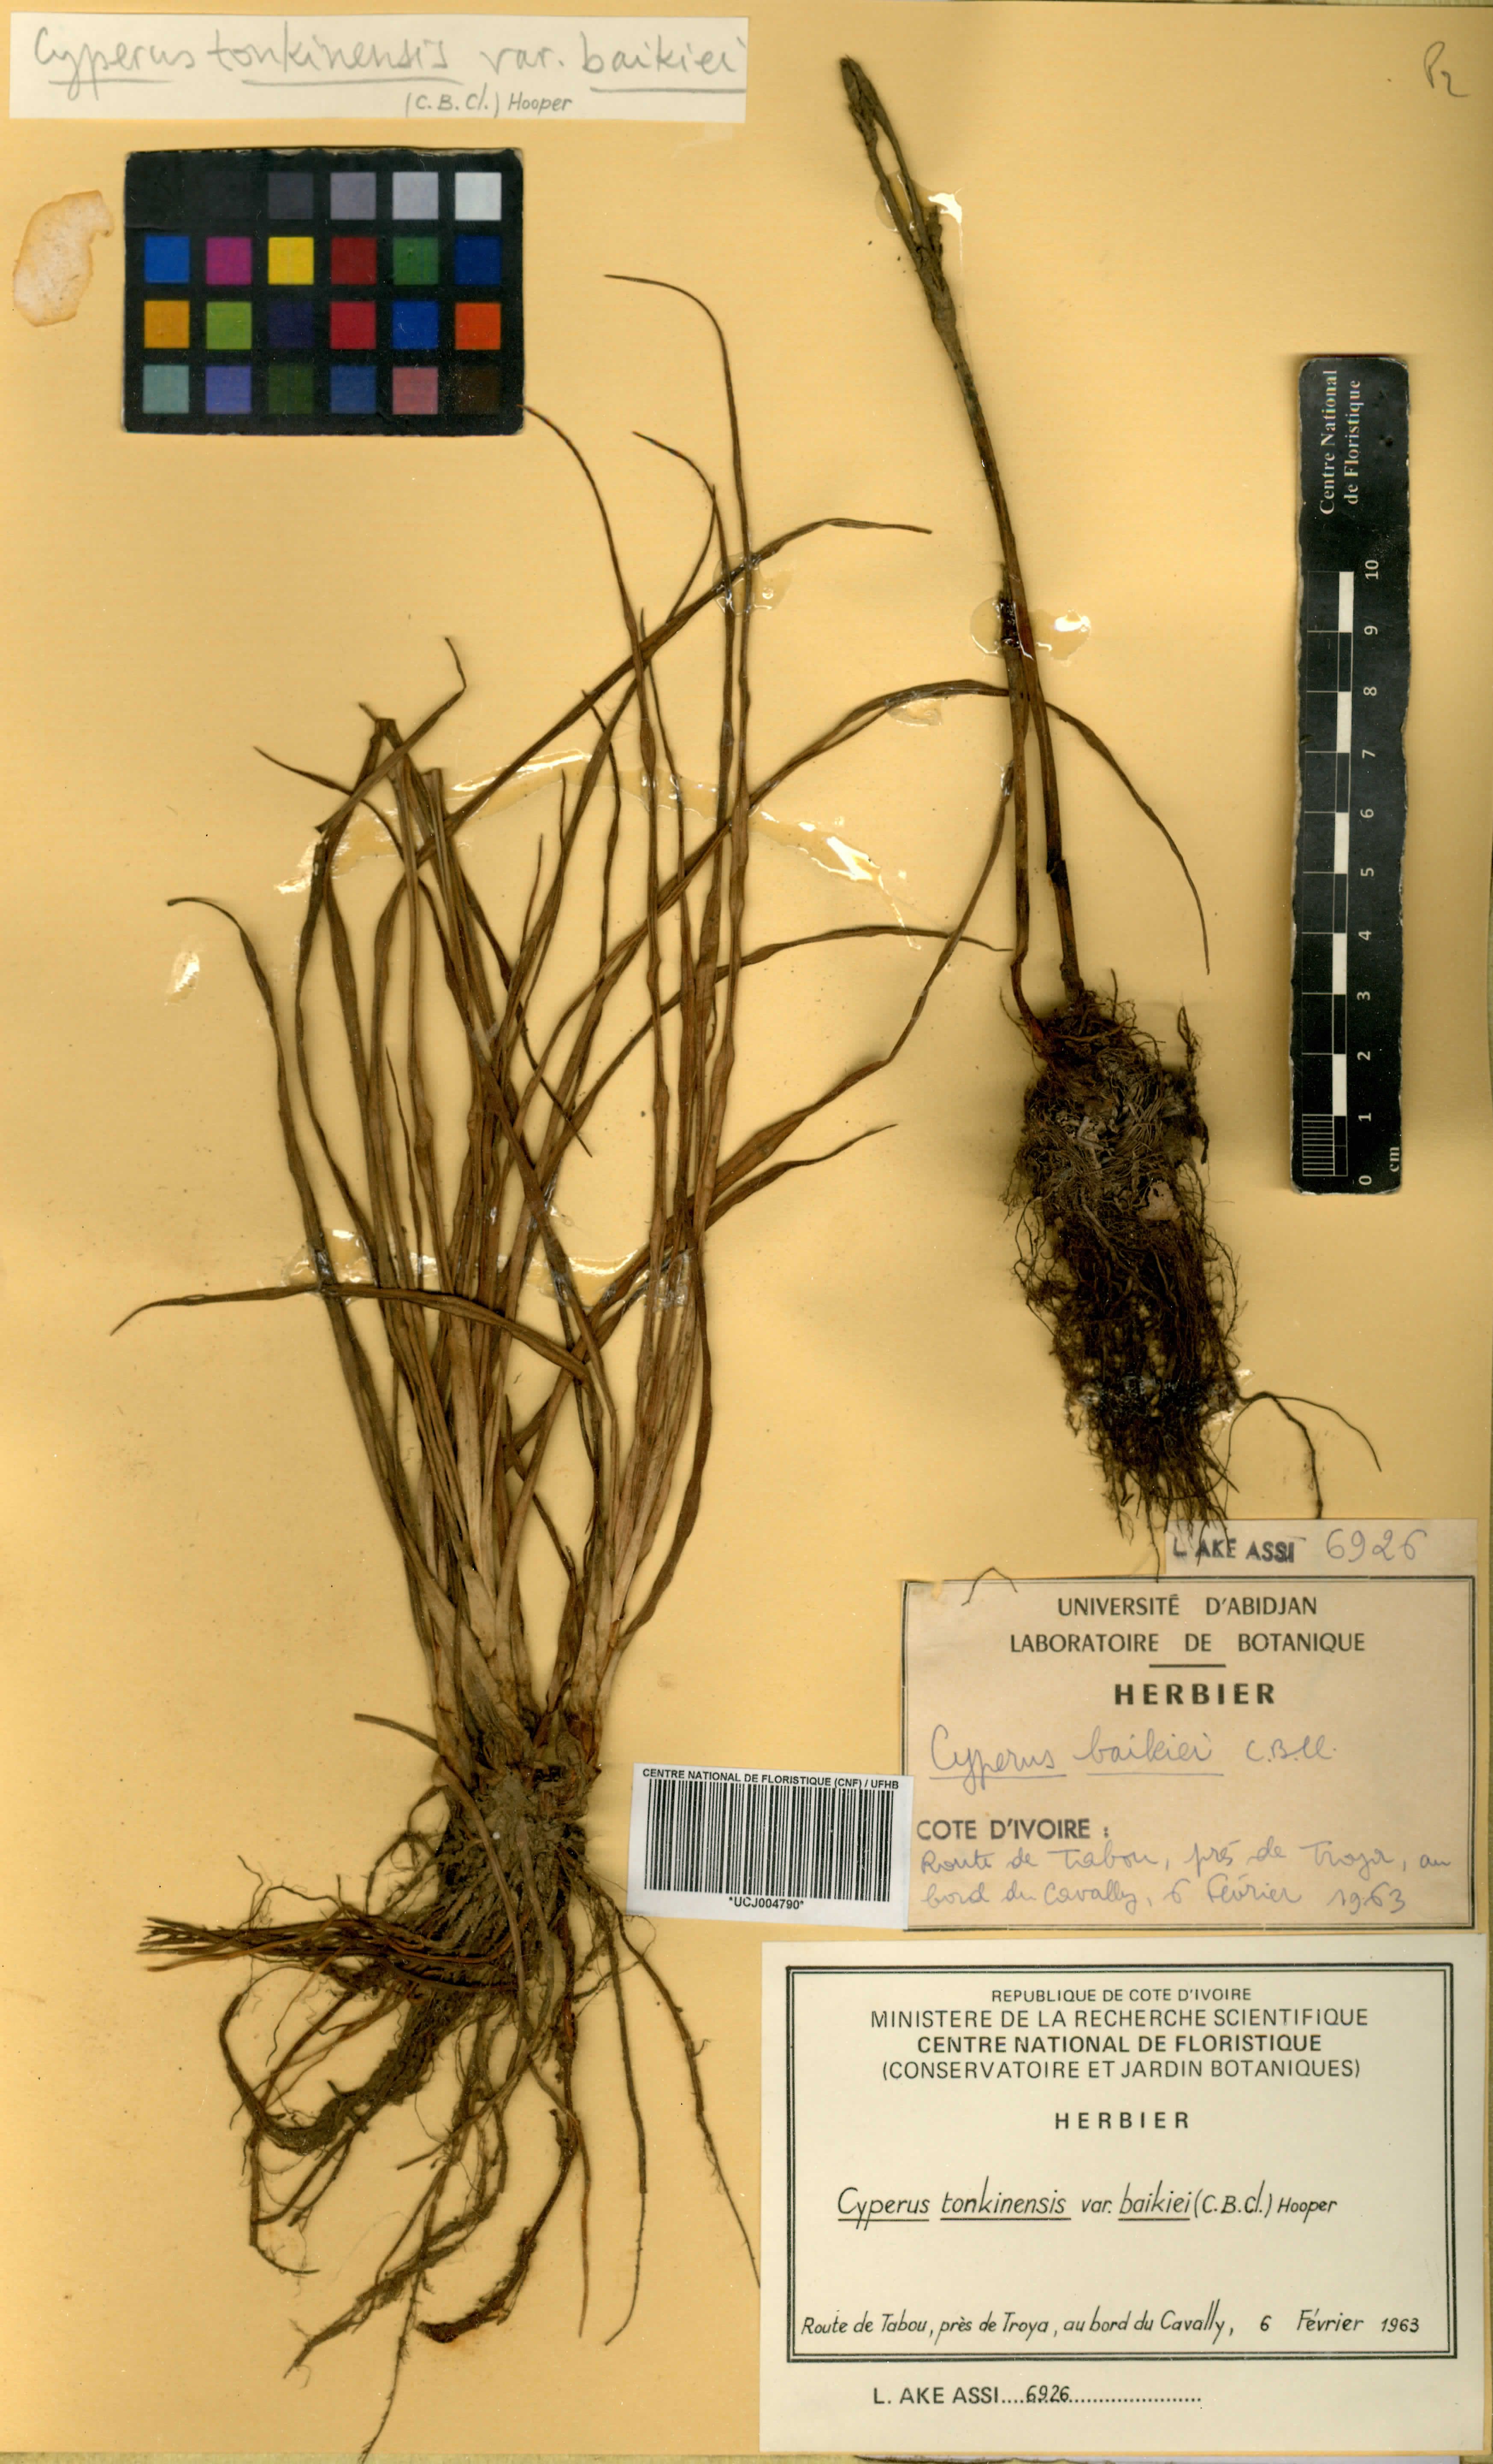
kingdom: Plantae
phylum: Tracheophyta
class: Liliopsida
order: Poales
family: Cyperaceae
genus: Cyperus
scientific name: Cyperus tonkinensis
